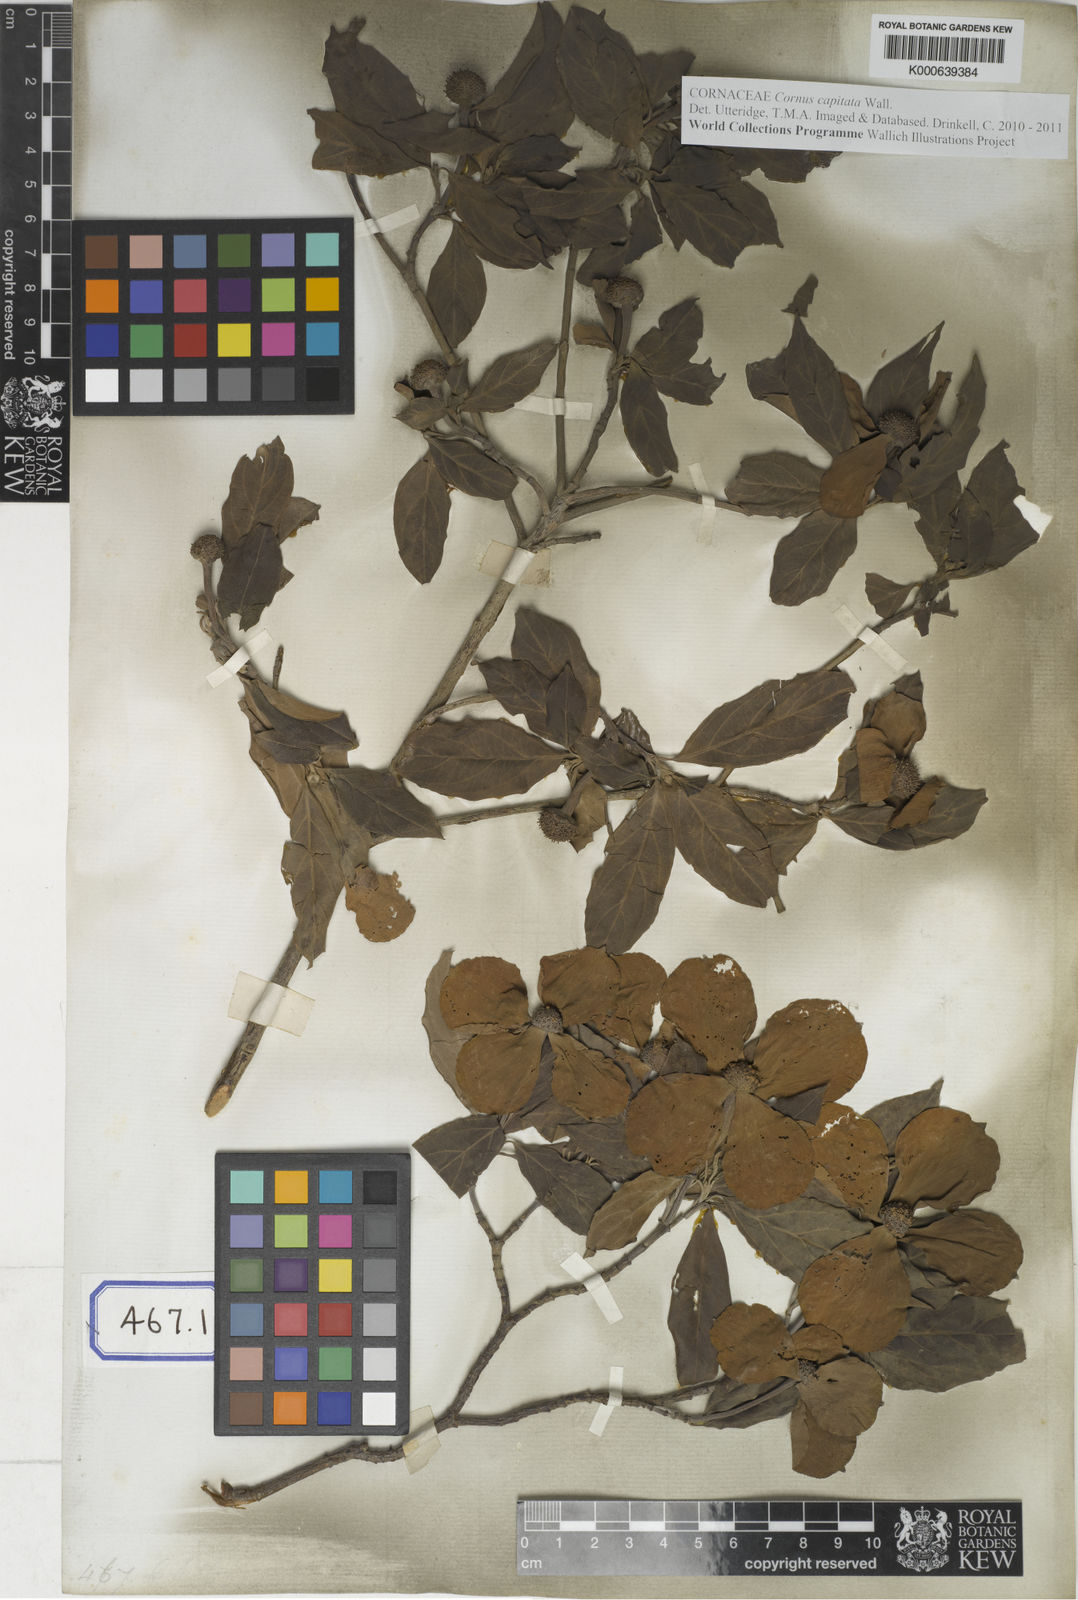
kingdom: Plantae
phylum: Tracheophyta
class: Magnoliopsida
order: Cornales
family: Cornaceae
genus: Cornus
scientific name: Cornus capitata
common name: Bentham's cornel
